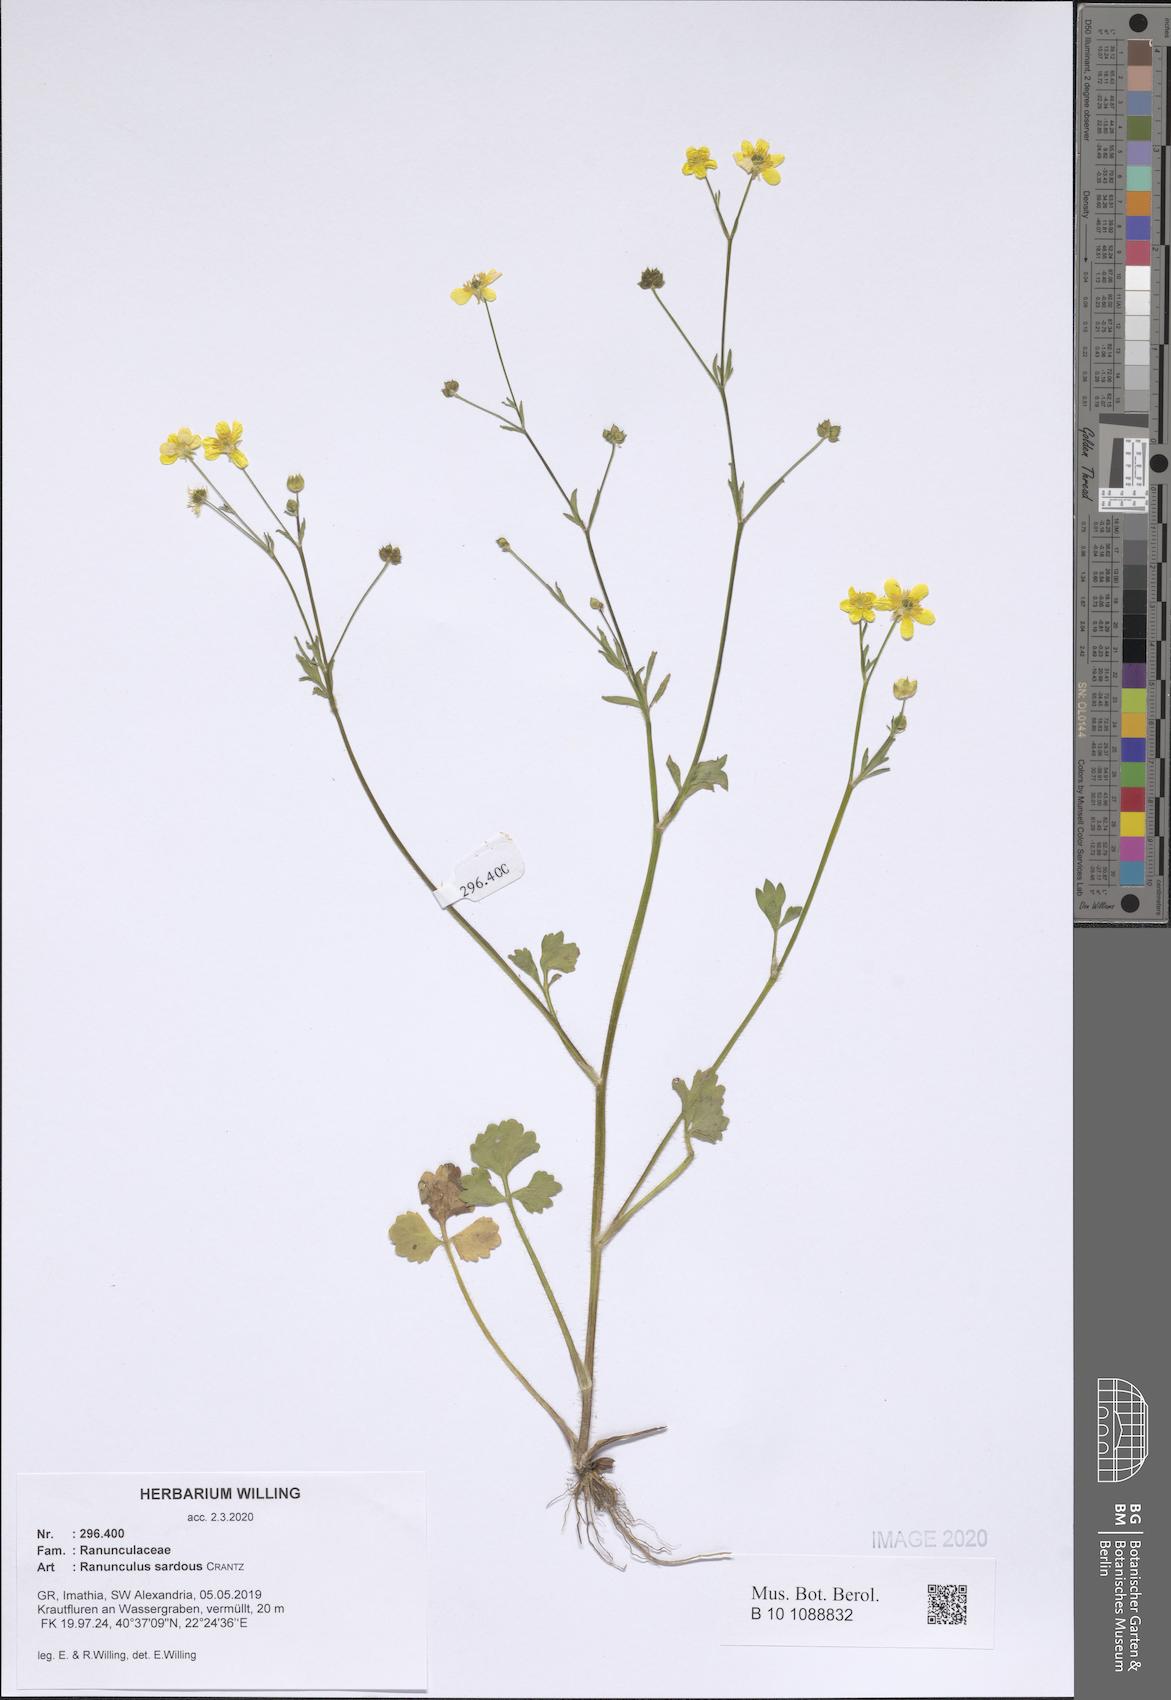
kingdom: Plantae
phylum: Tracheophyta
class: Magnoliopsida
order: Ranunculales
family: Ranunculaceae
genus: Ranunculus
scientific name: Ranunculus sardous
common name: Hairy buttercup
